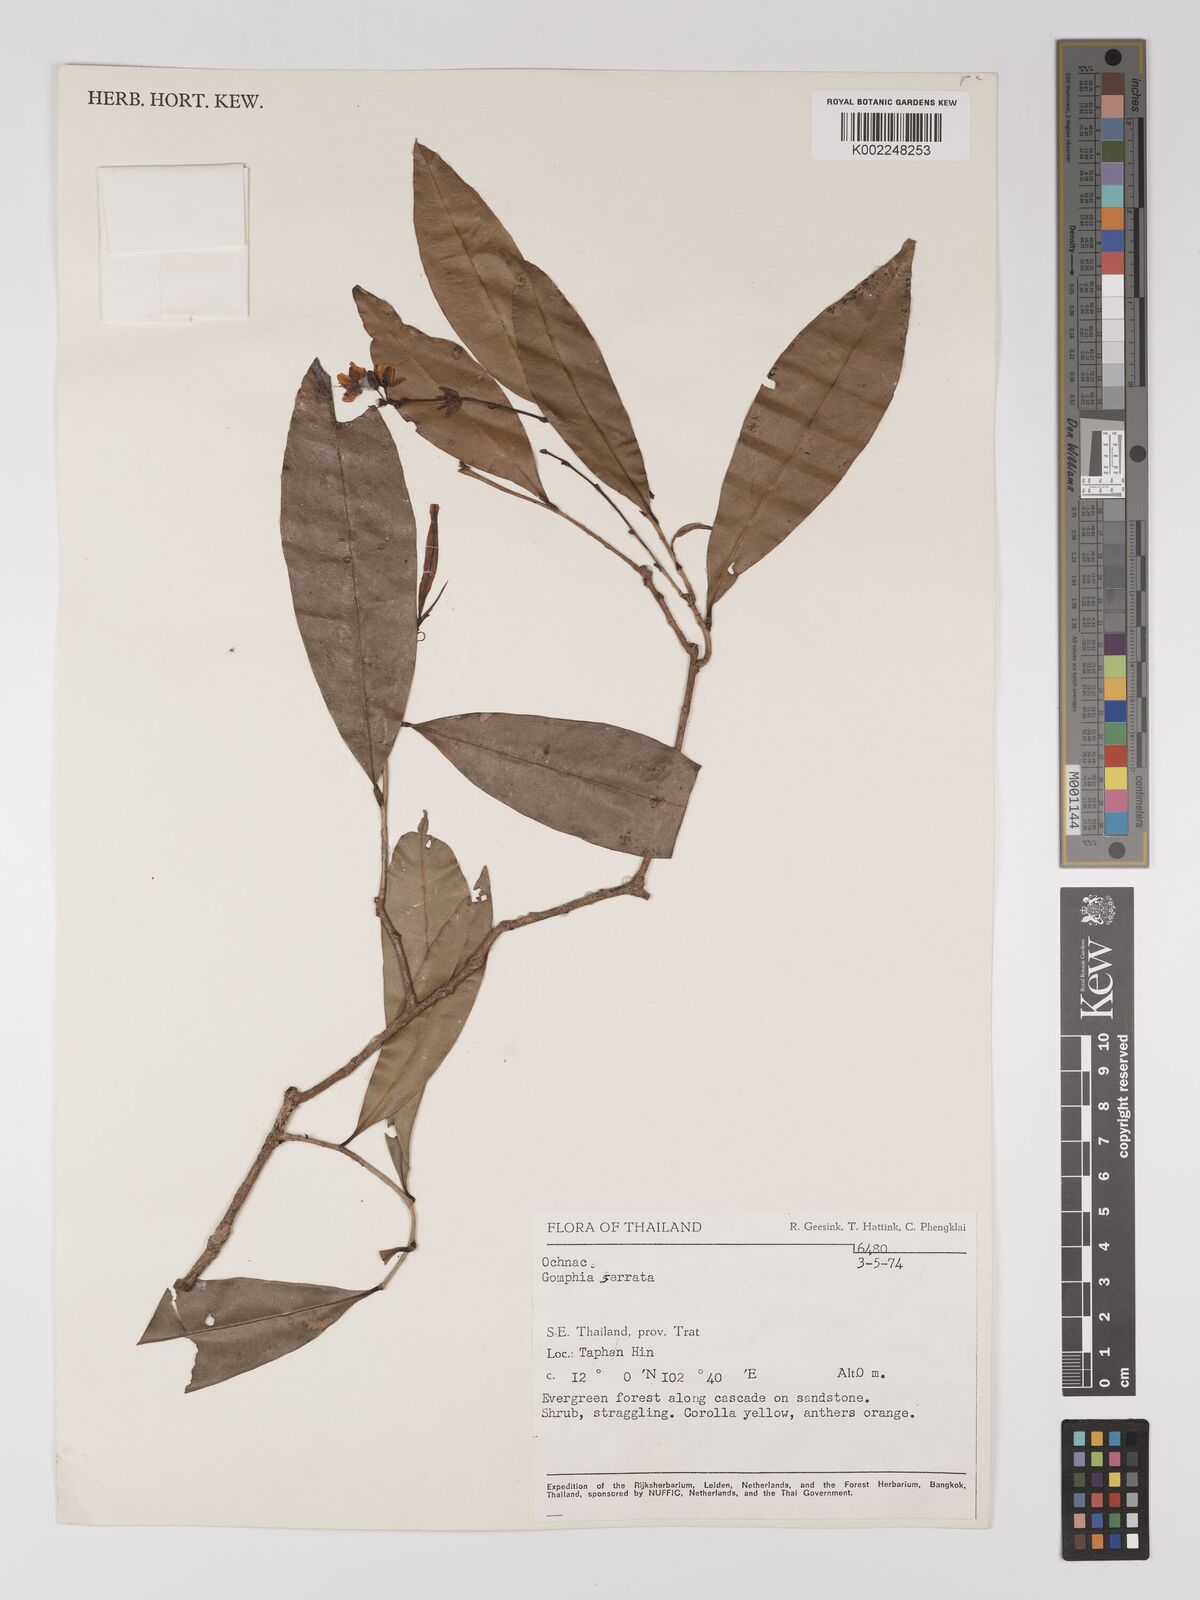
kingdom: Plantae
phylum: Tracheophyta
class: Magnoliopsida
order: Malpighiales
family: Ochnaceae
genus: Gomphia
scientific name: Gomphia serrata
